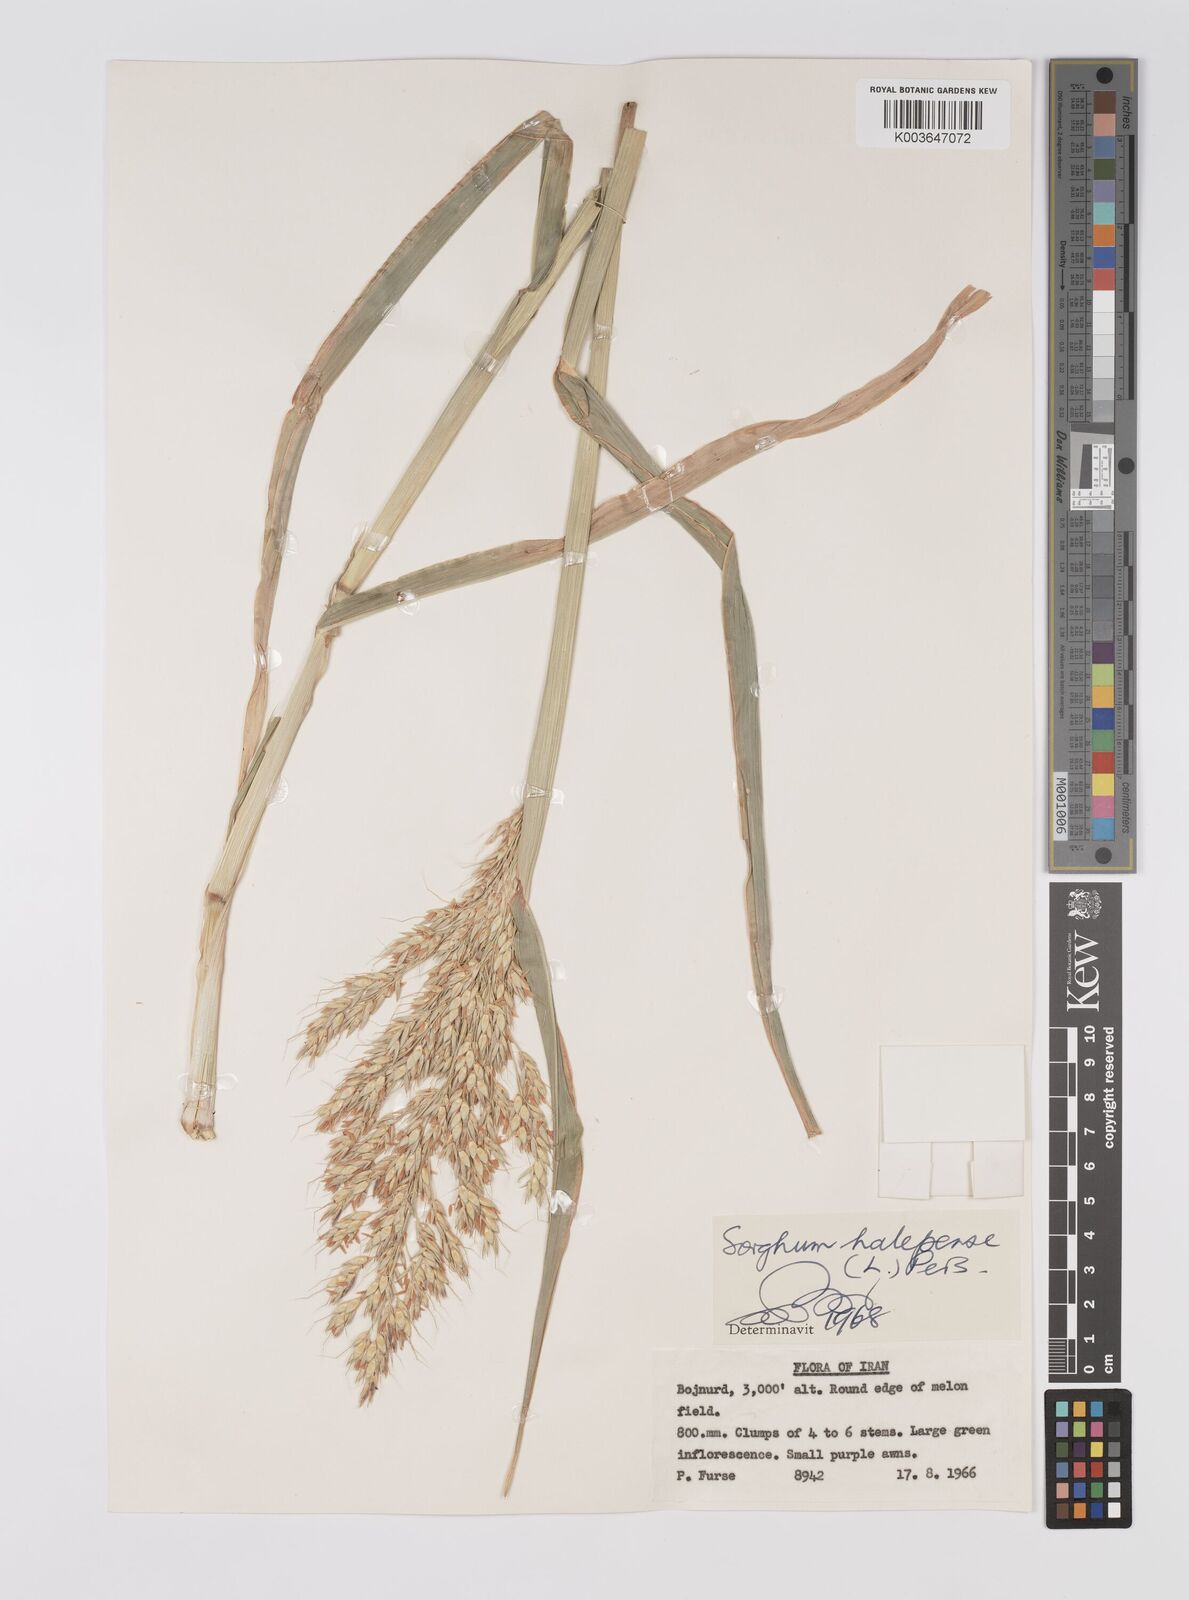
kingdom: Plantae
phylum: Tracheophyta
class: Liliopsida
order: Poales
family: Poaceae
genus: Sorghum
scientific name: Sorghum halepense
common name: Johnson-grass
